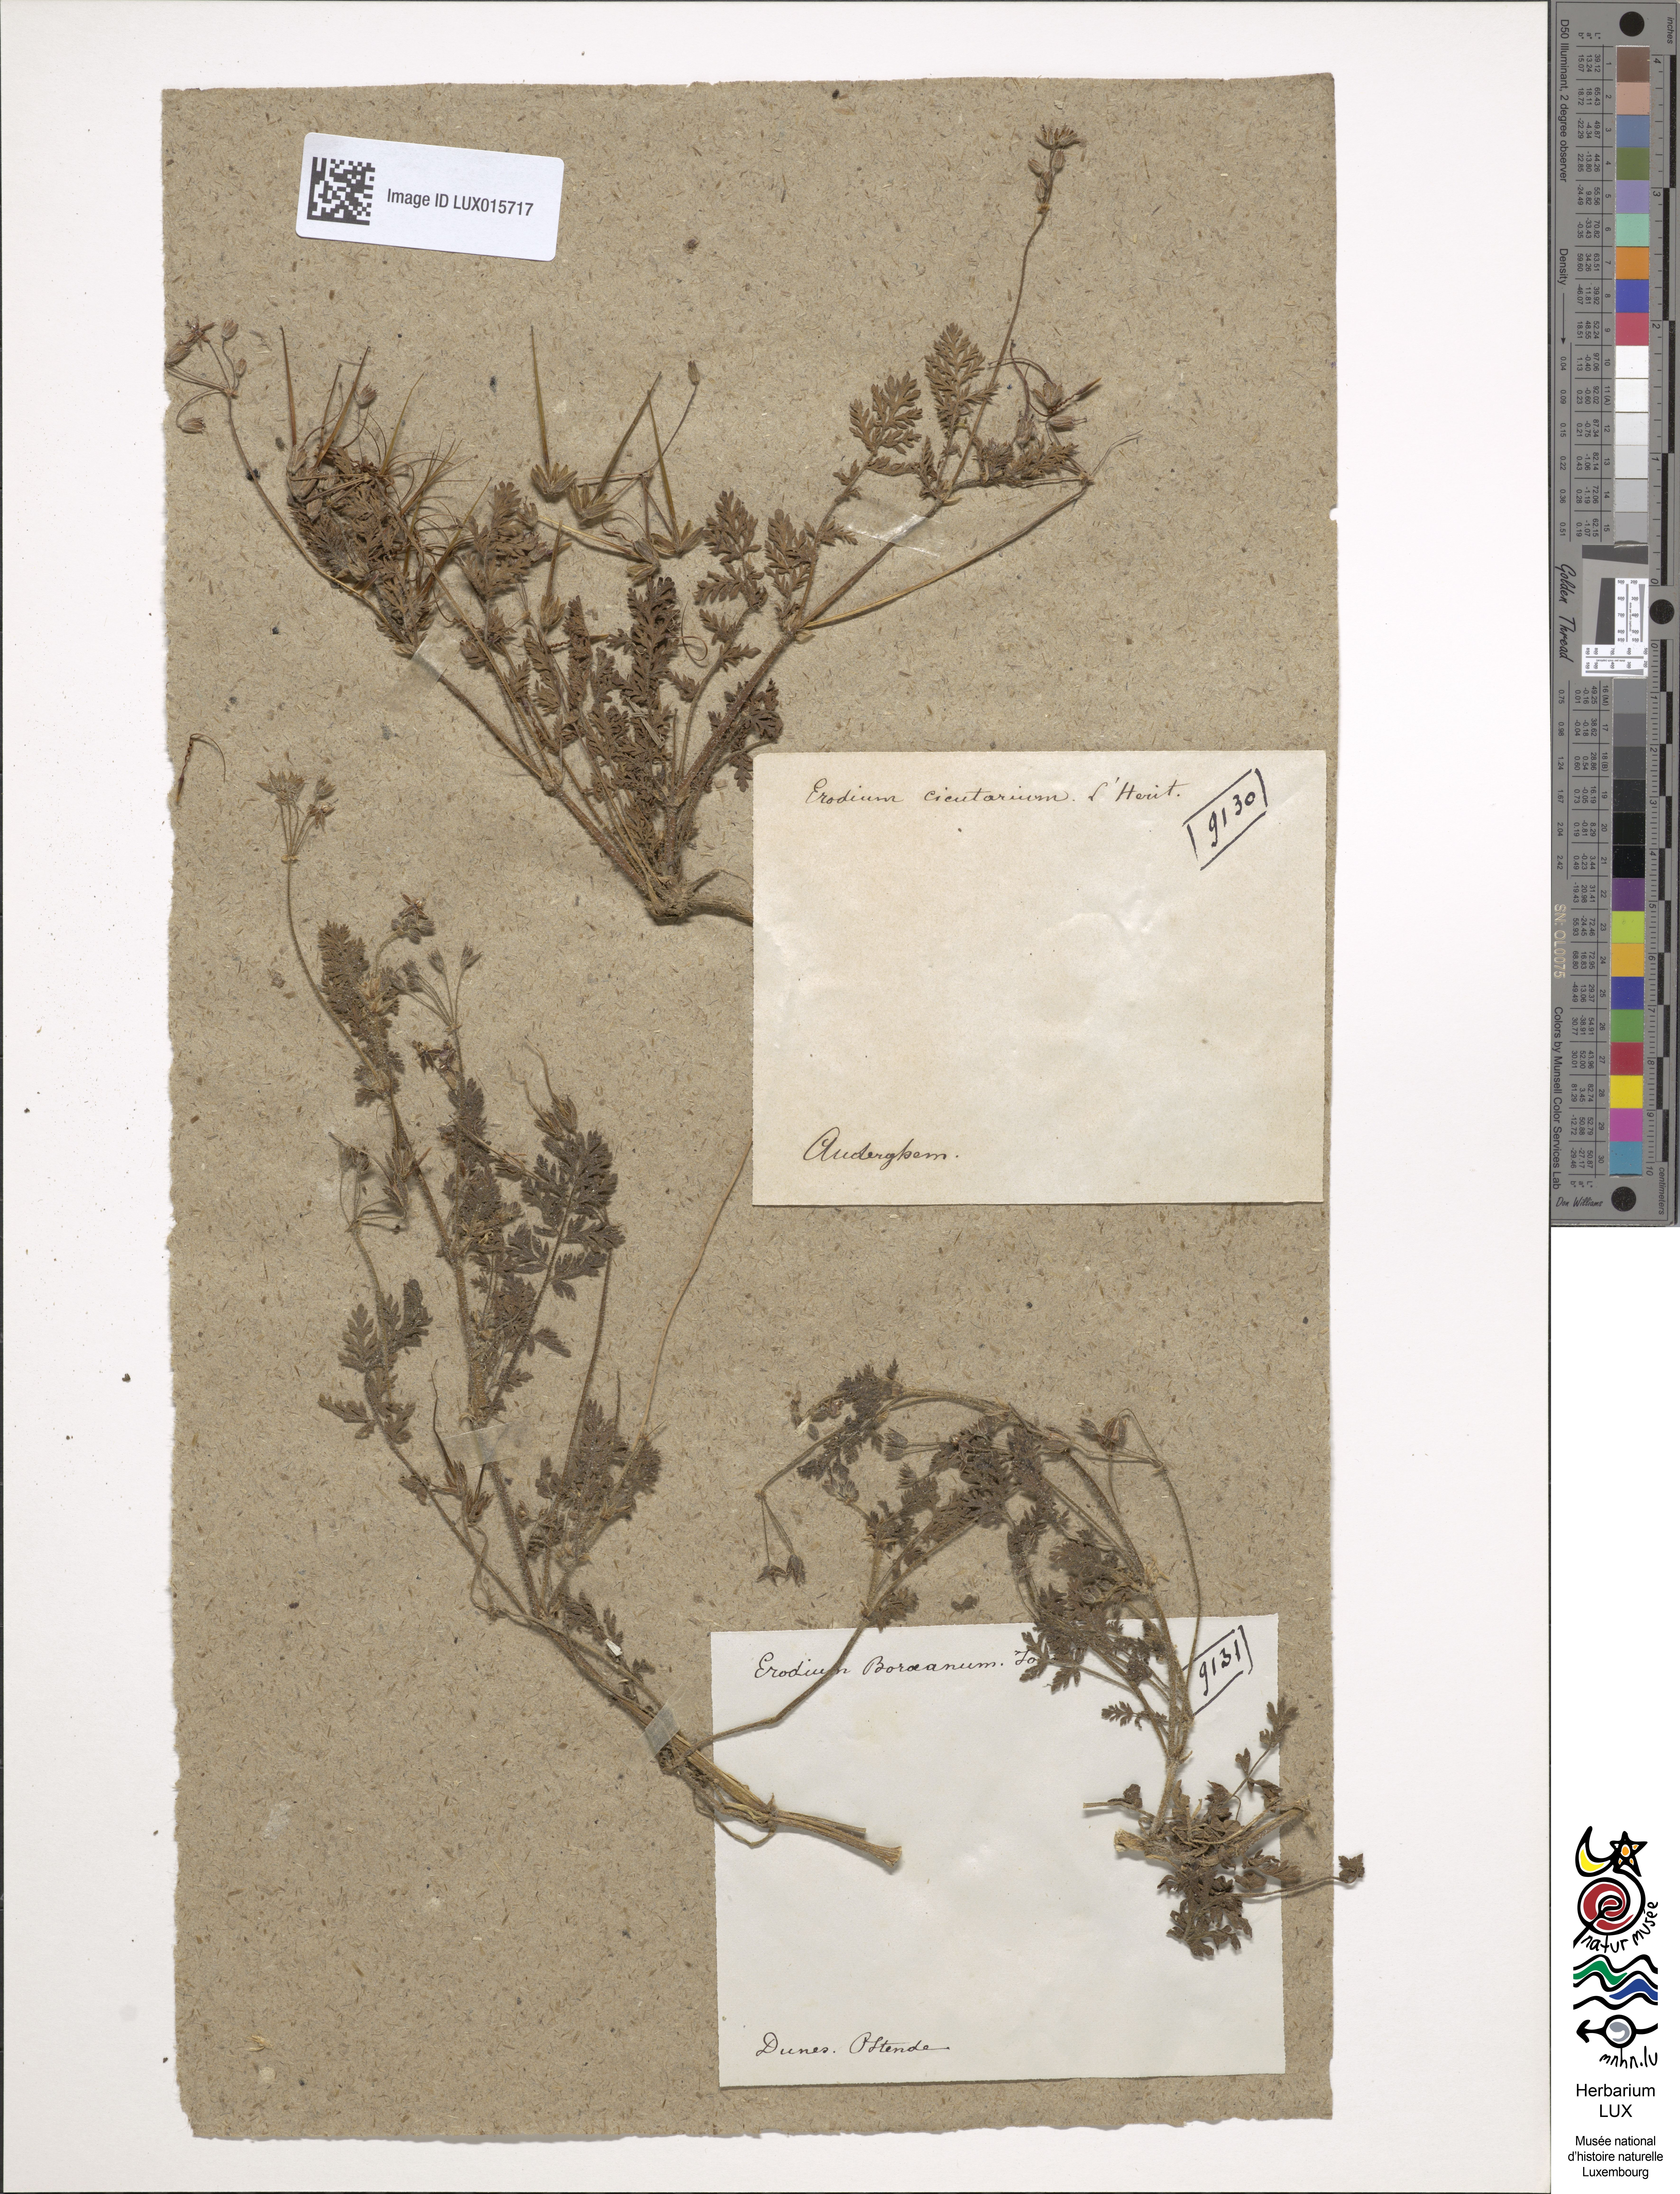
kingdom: Plantae
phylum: Tracheophyta
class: Magnoliopsida
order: Geraniales
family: Geraniaceae
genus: Erodium
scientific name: Erodium cicutarium
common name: Common stork's-bill
